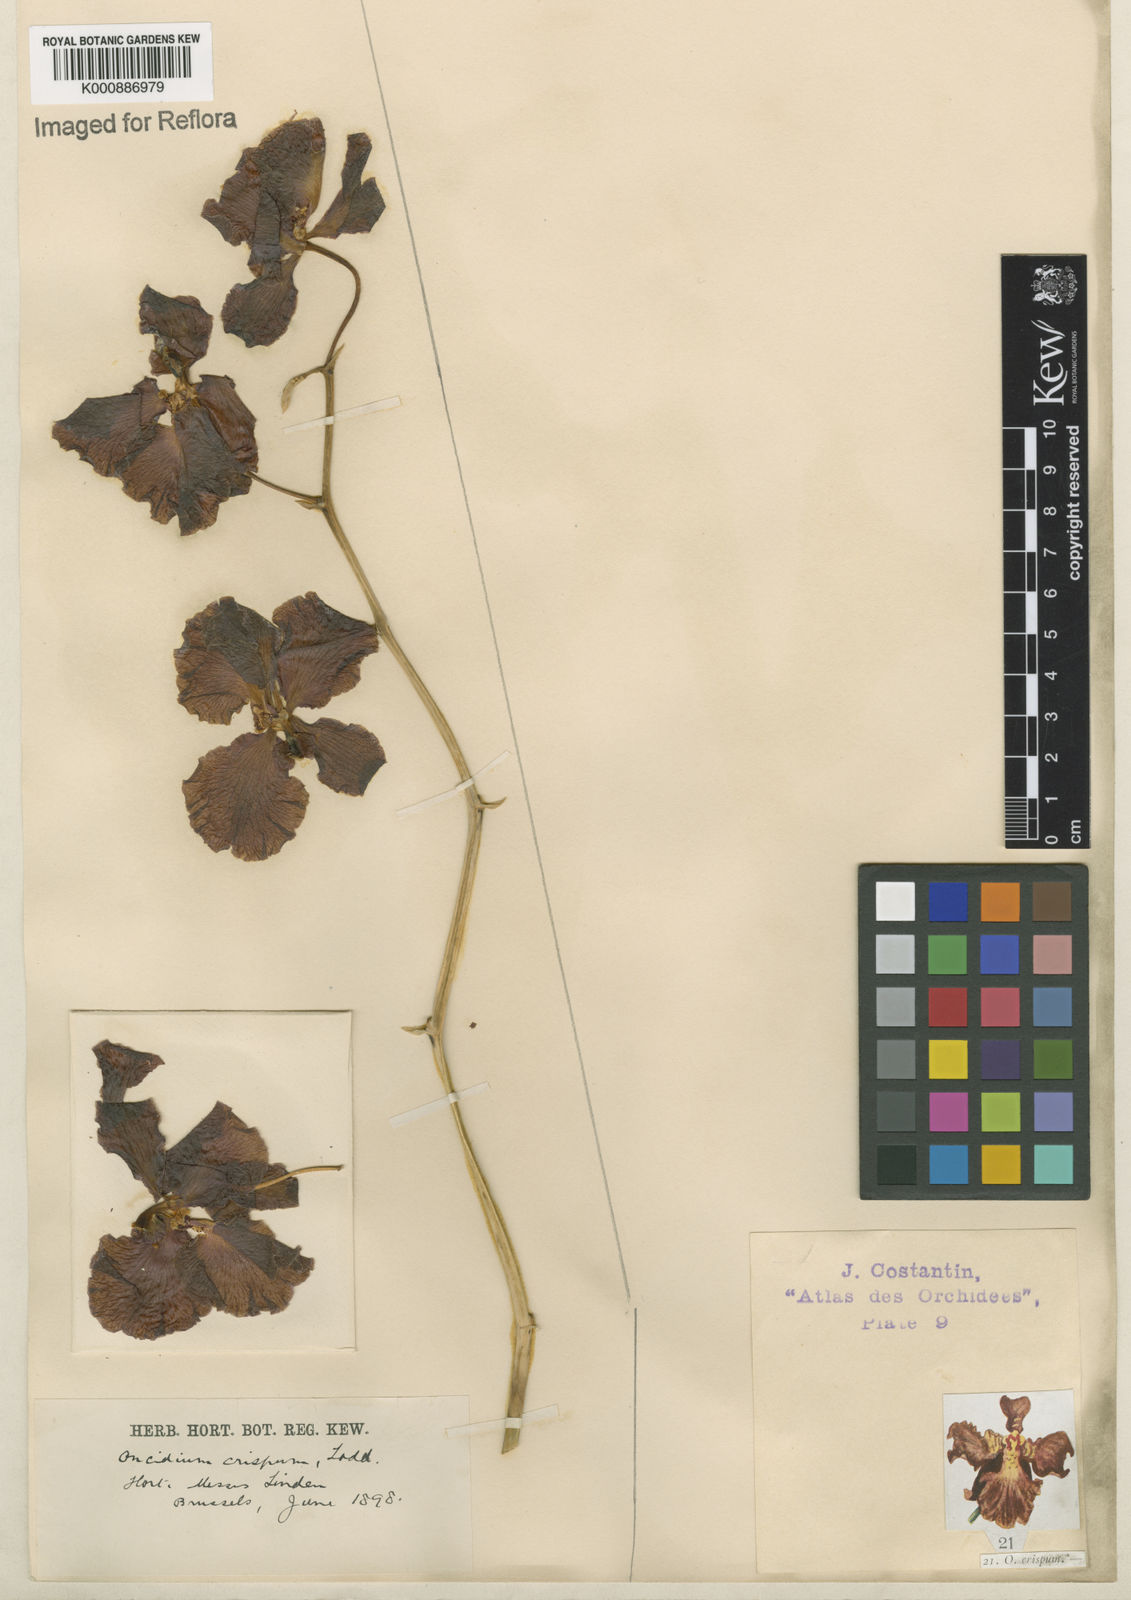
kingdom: Plantae
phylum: Tracheophyta
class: Liliopsida
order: Asparagales
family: Orchidaceae
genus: Gomesa
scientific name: Gomesa imperatoris-maximiliani
